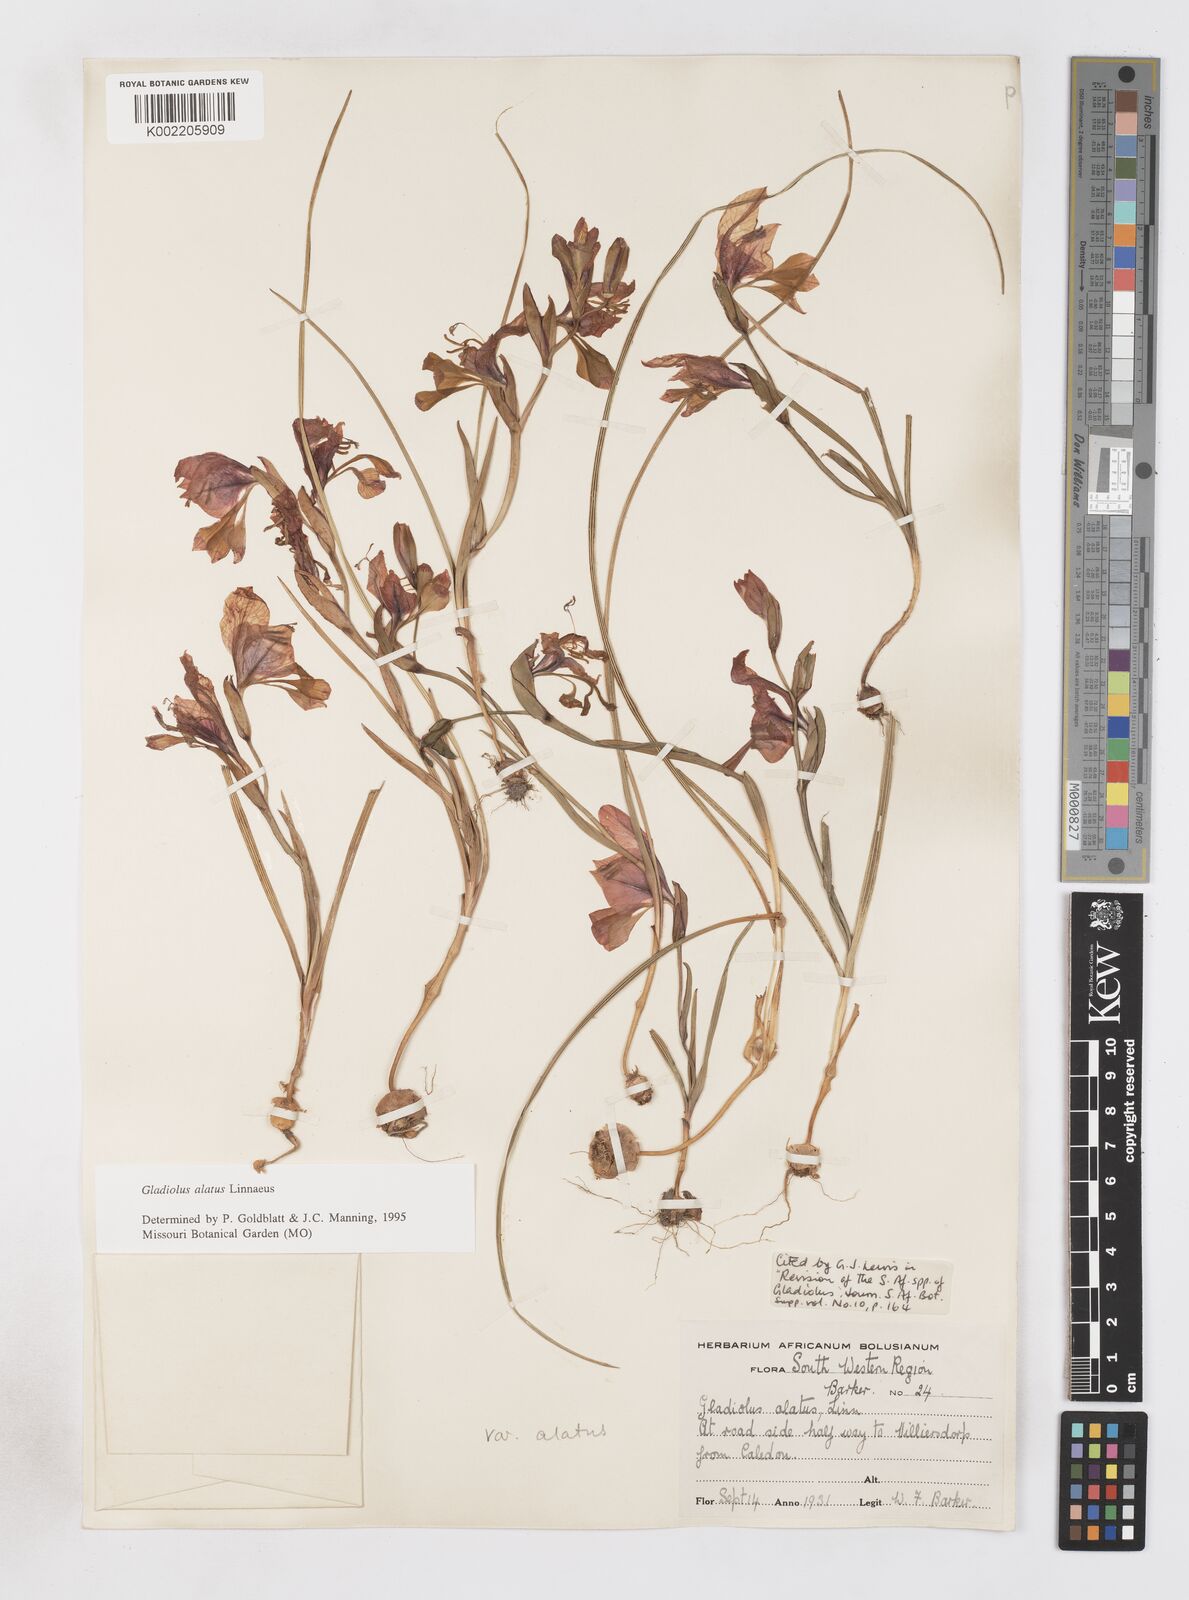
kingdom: Plantae
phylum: Tracheophyta
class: Liliopsida
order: Asparagales
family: Iridaceae
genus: Gladiolus
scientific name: Gladiolus alatus
